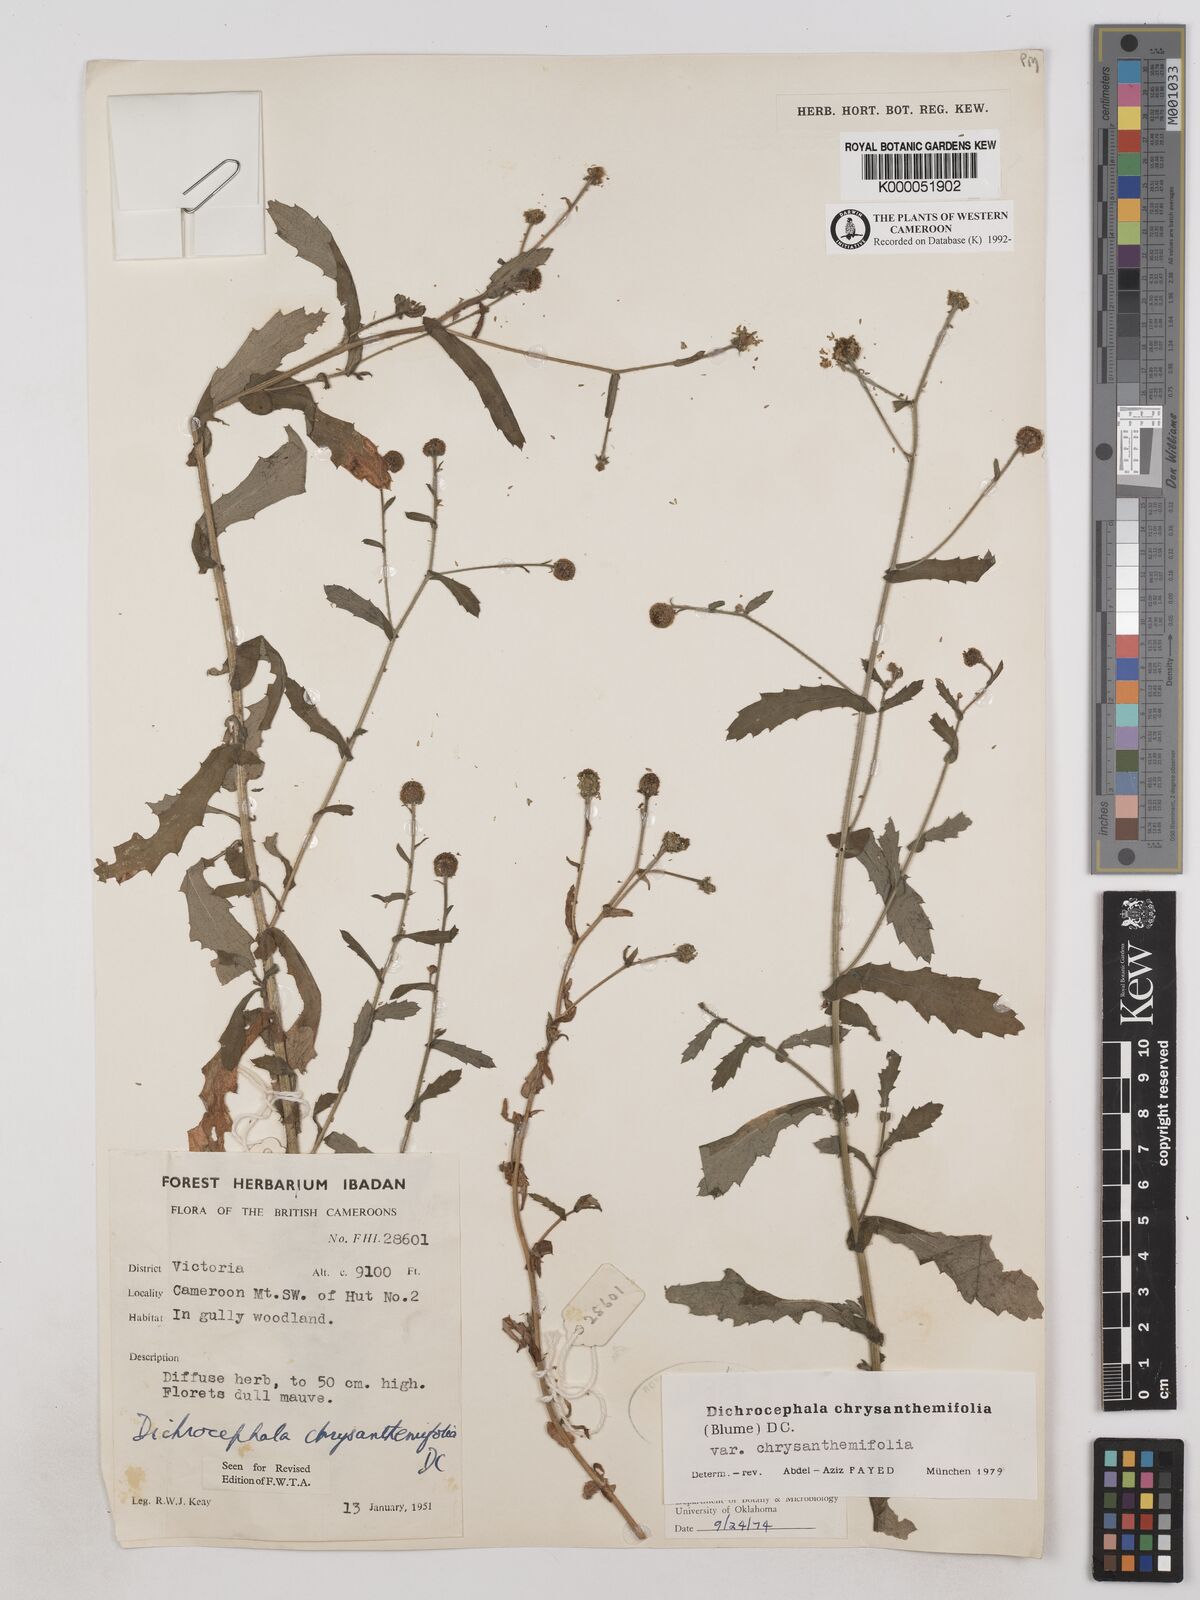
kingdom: Plantae
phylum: Tracheophyta
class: Magnoliopsida
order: Asterales
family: Asteraceae
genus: Dichrocephala
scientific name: Dichrocephala chrysanthemifolia
